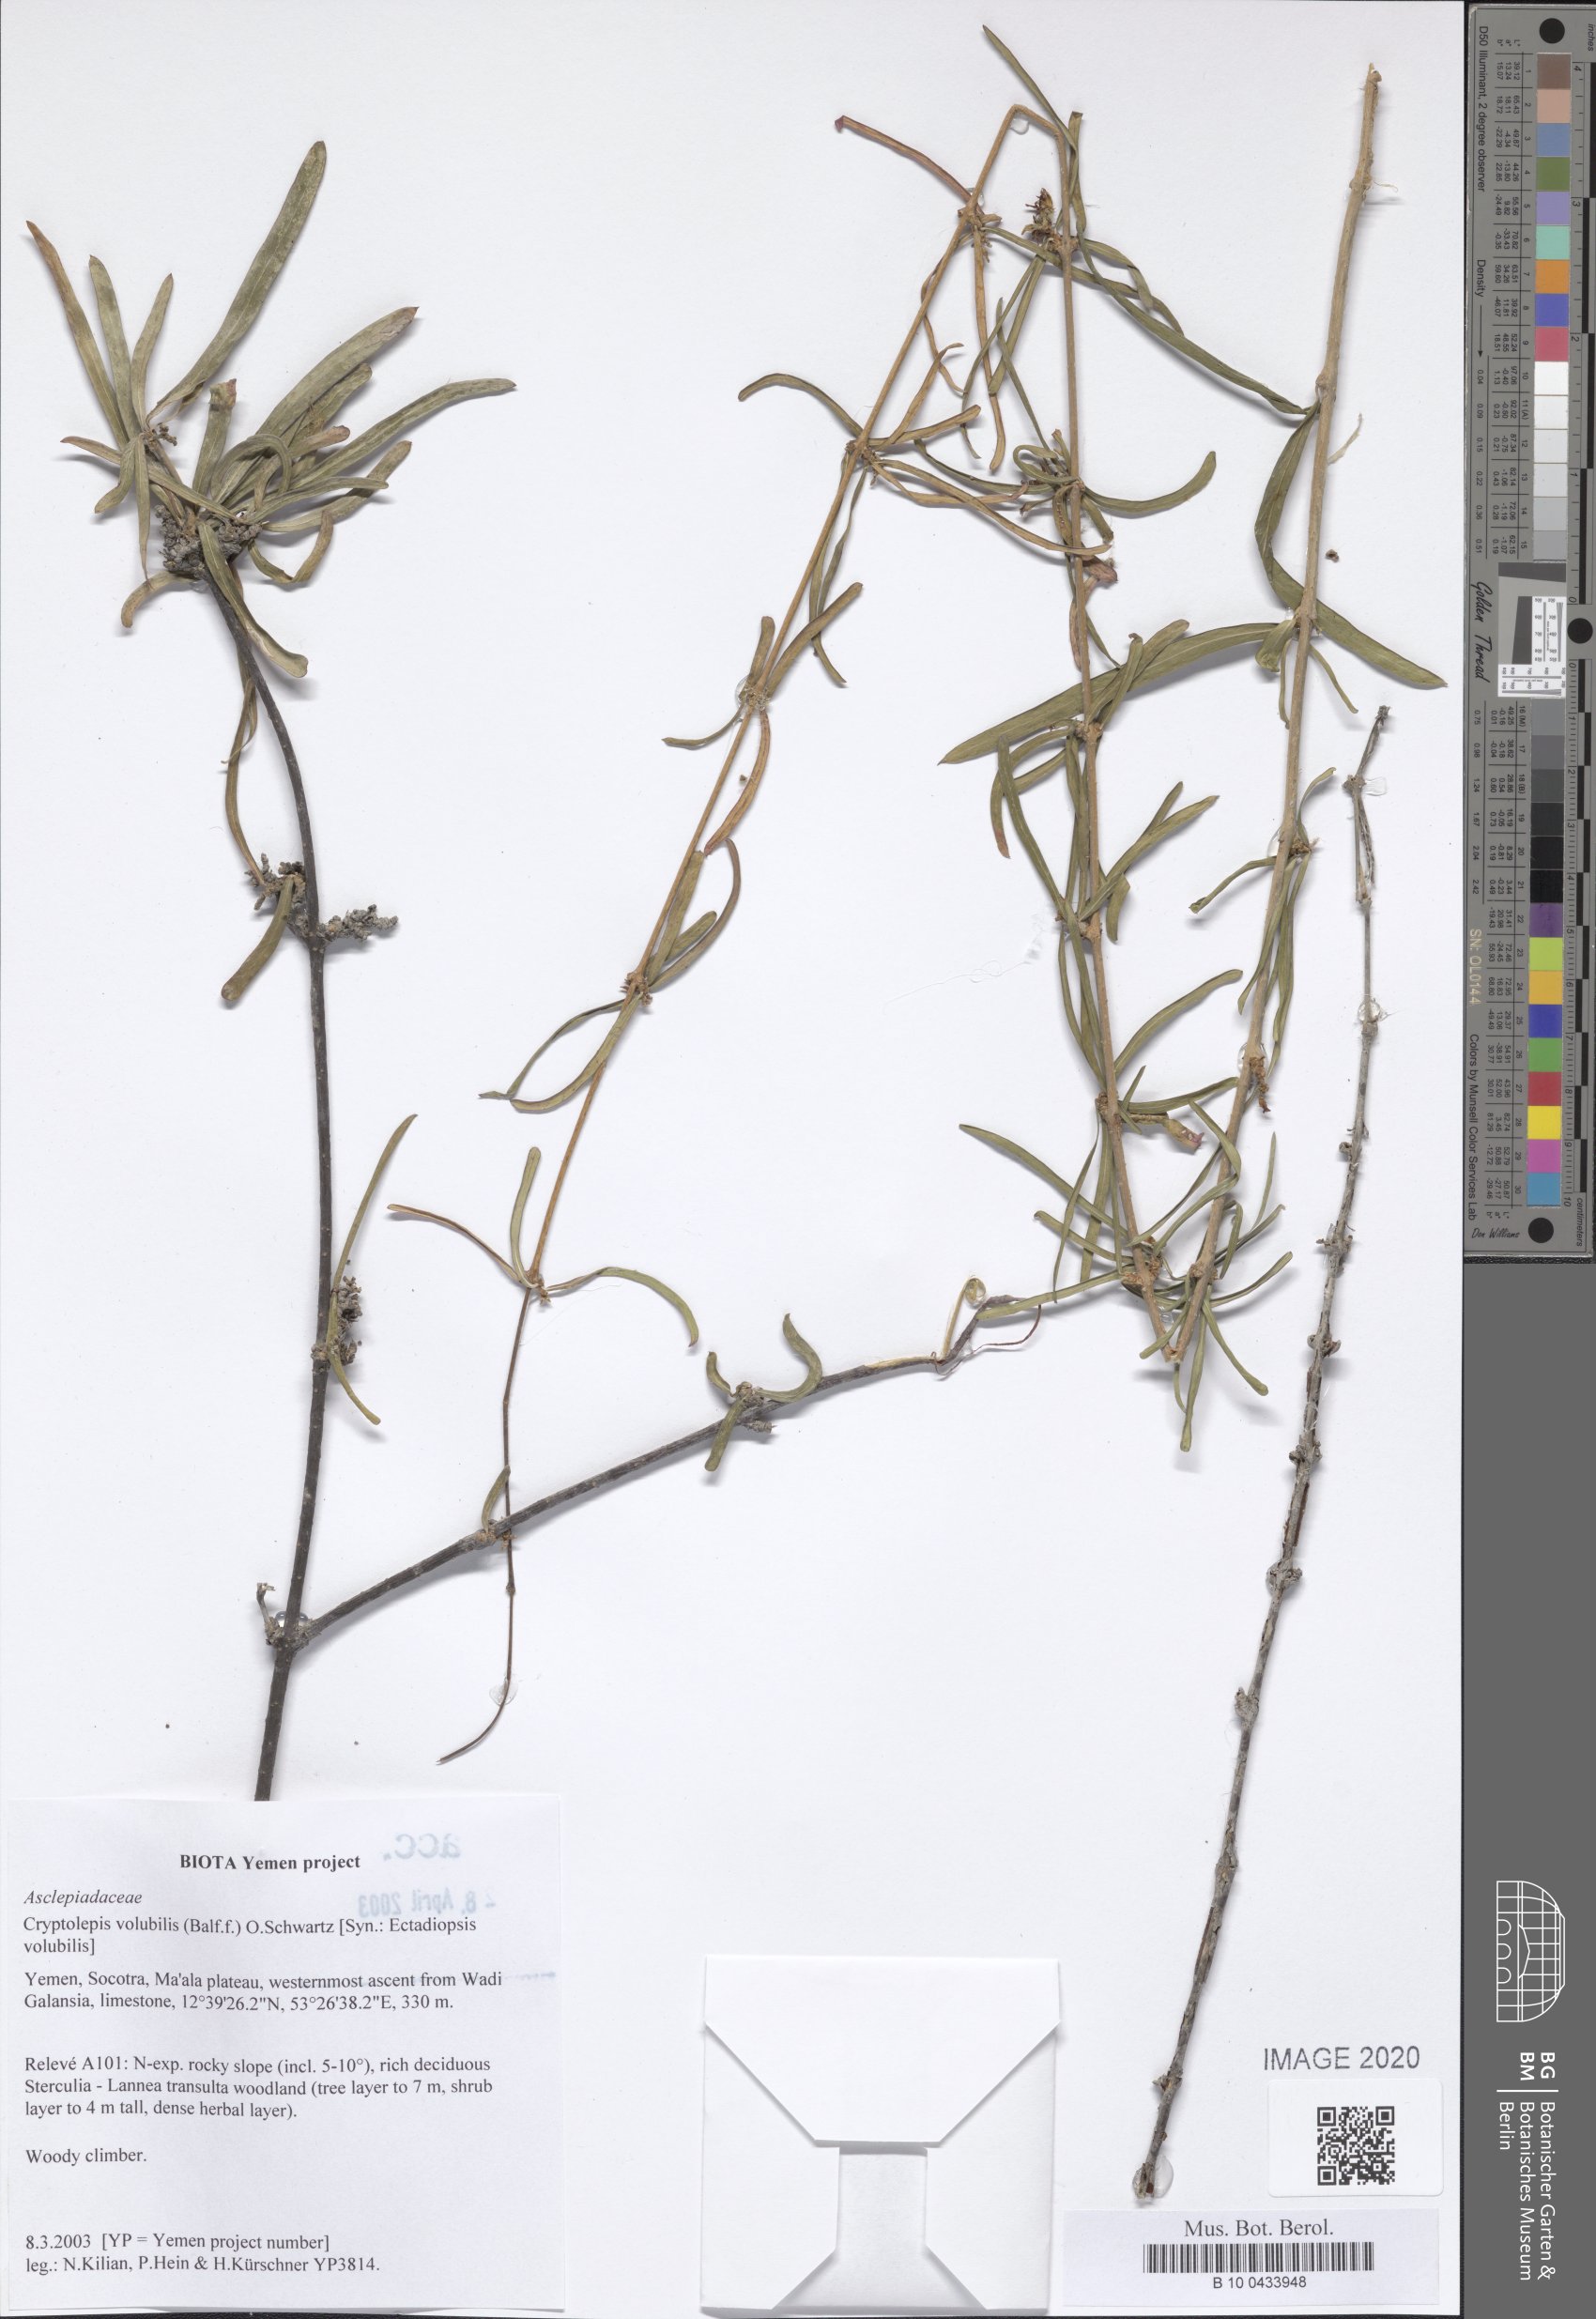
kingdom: Plantae
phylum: Tracheophyta
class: Magnoliopsida
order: Gentianales
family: Apocynaceae
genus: Cryptolepis
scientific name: Cryptolepis volubilis
